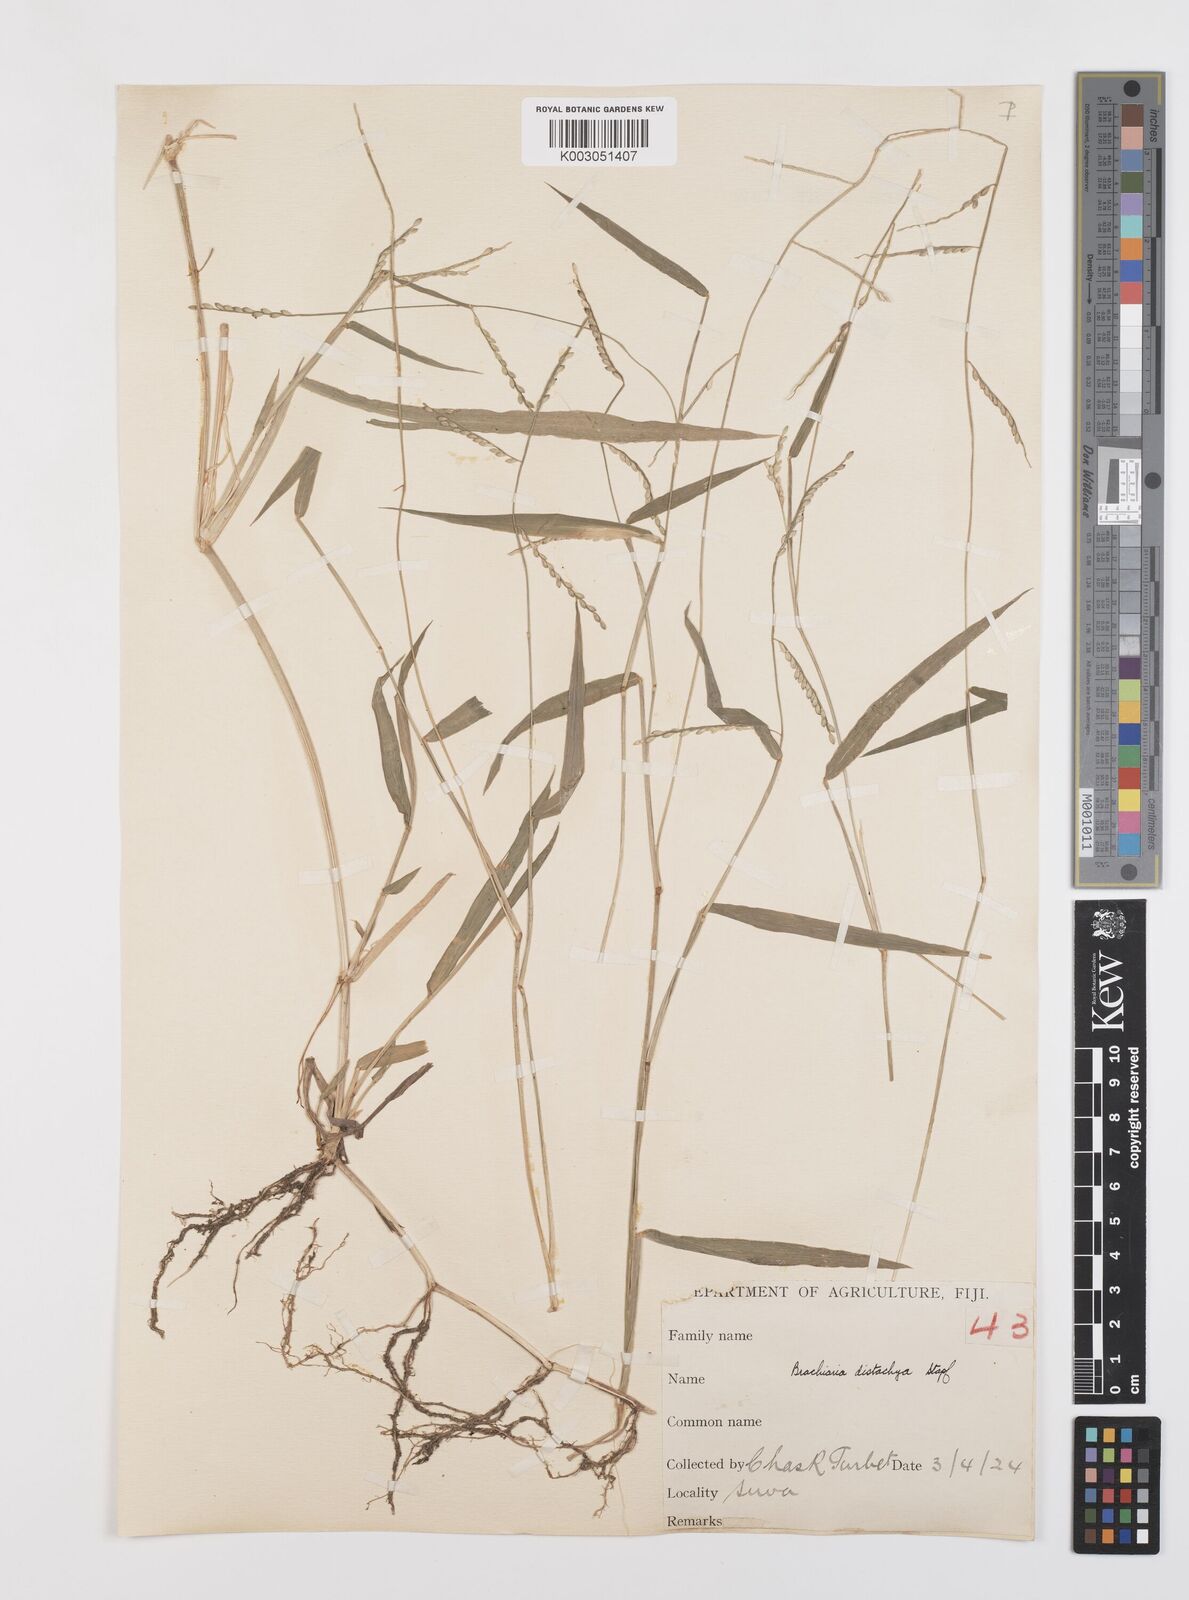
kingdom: Plantae
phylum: Tracheophyta
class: Liliopsida
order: Poales
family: Poaceae
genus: Urochloa
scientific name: Urochloa subquadripara
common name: Armgrass millet
